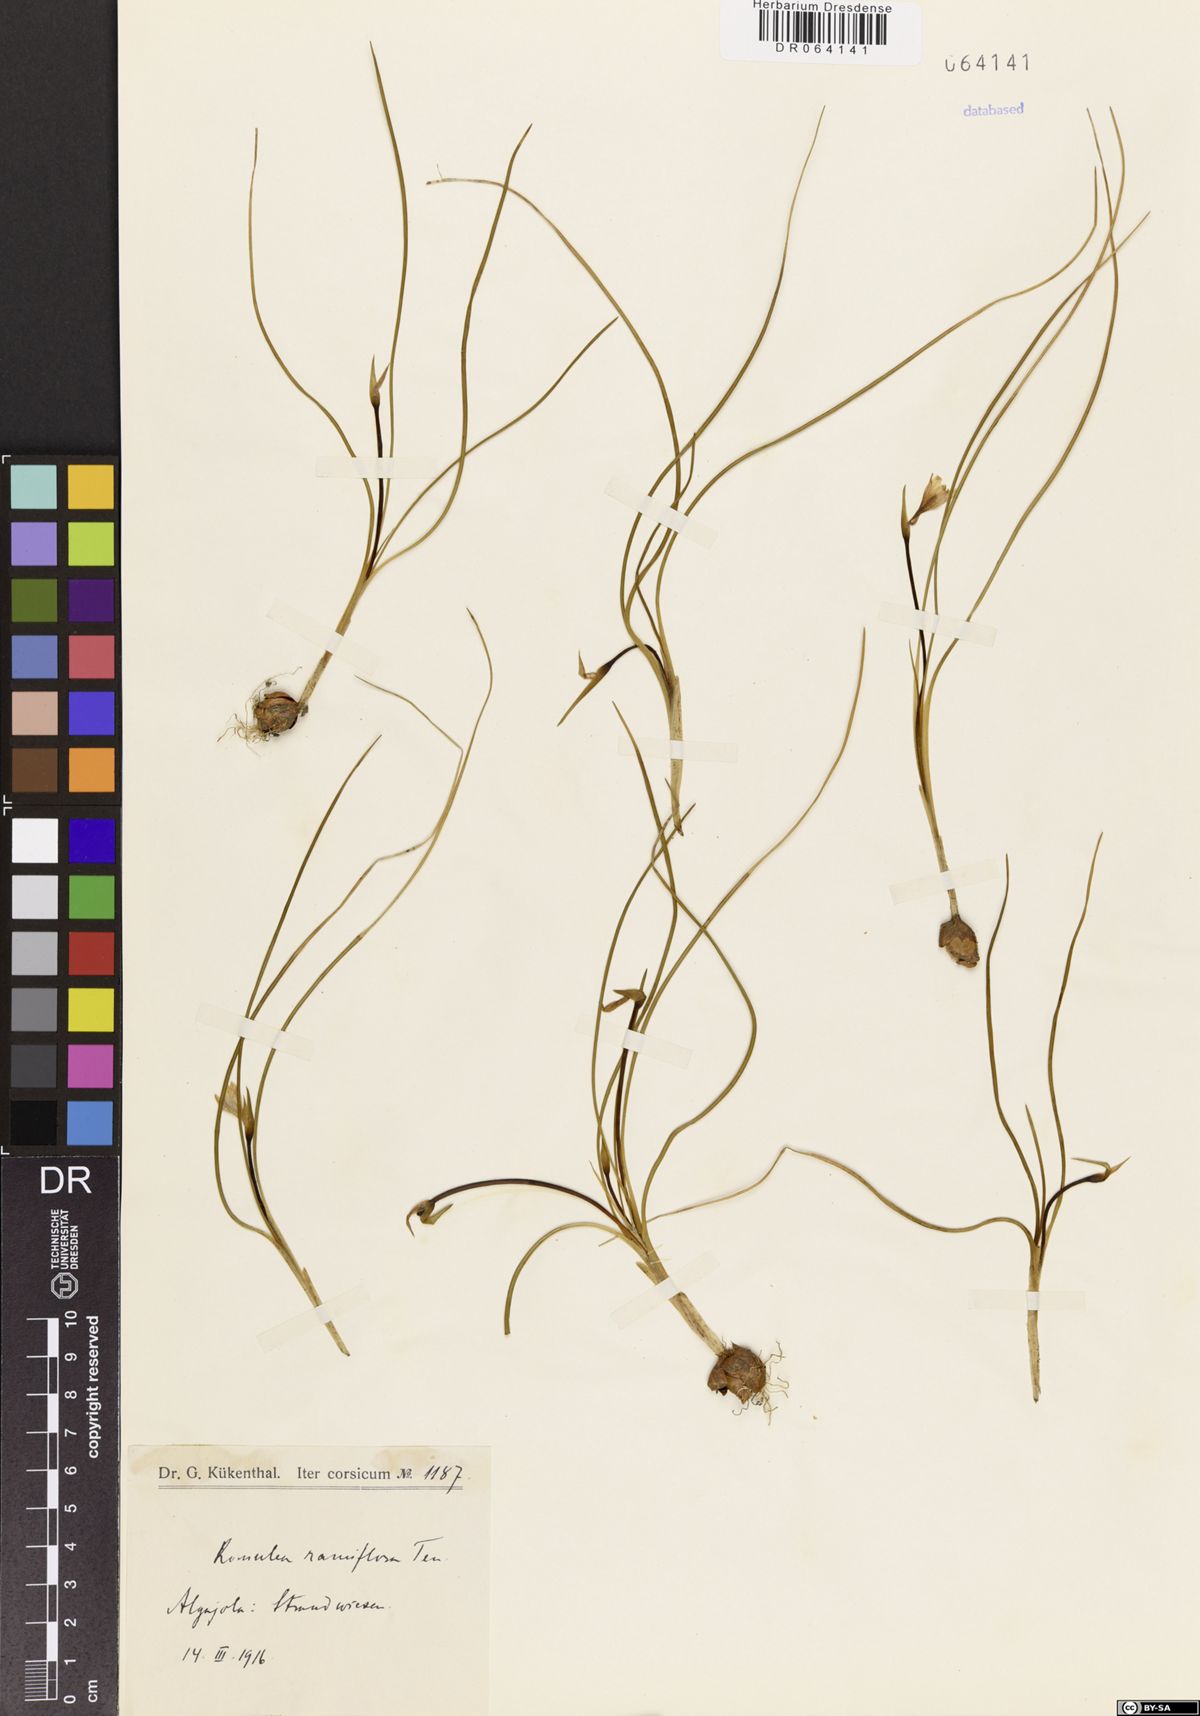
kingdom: Plantae
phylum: Tracheophyta
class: Liliopsida
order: Asparagales
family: Iridaceae
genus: Romulea
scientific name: Romulea ramiflora
